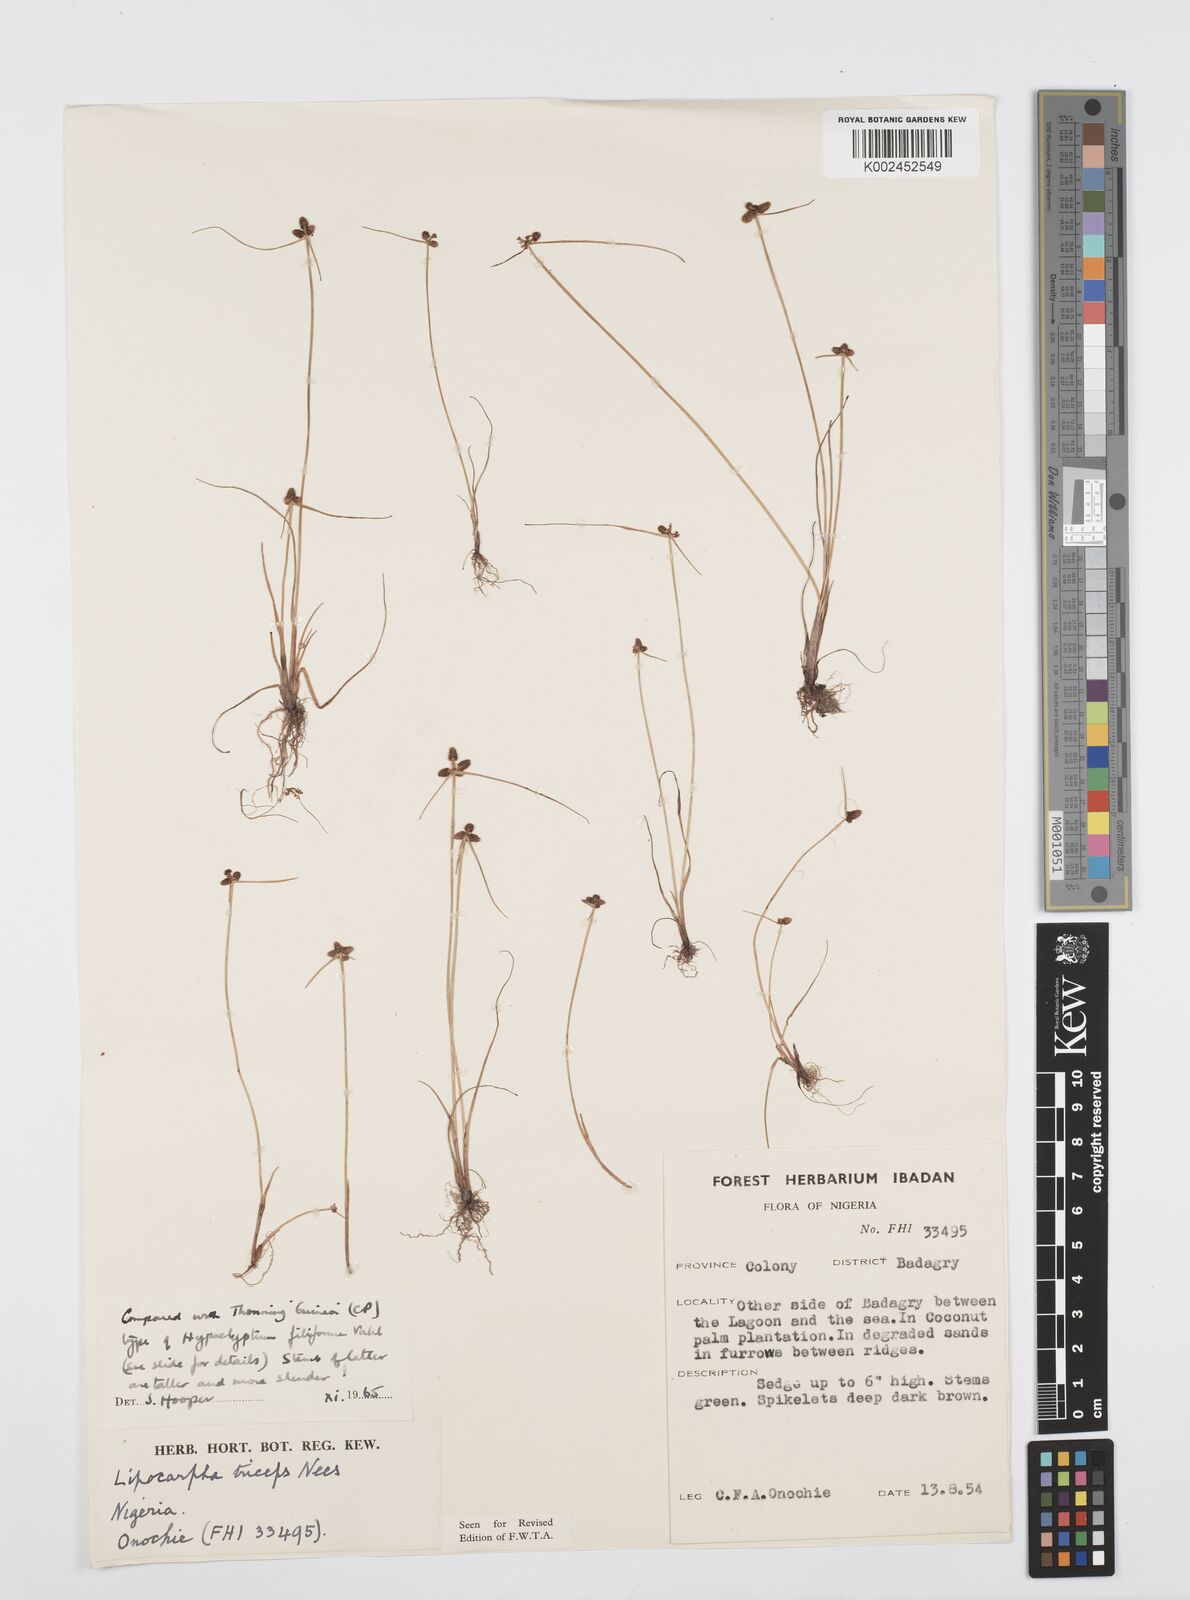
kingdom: Plantae
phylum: Tracheophyta
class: Liliopsida
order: Poales
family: Cyperaceae
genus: Cyperus
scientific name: Cyperus filiformis
